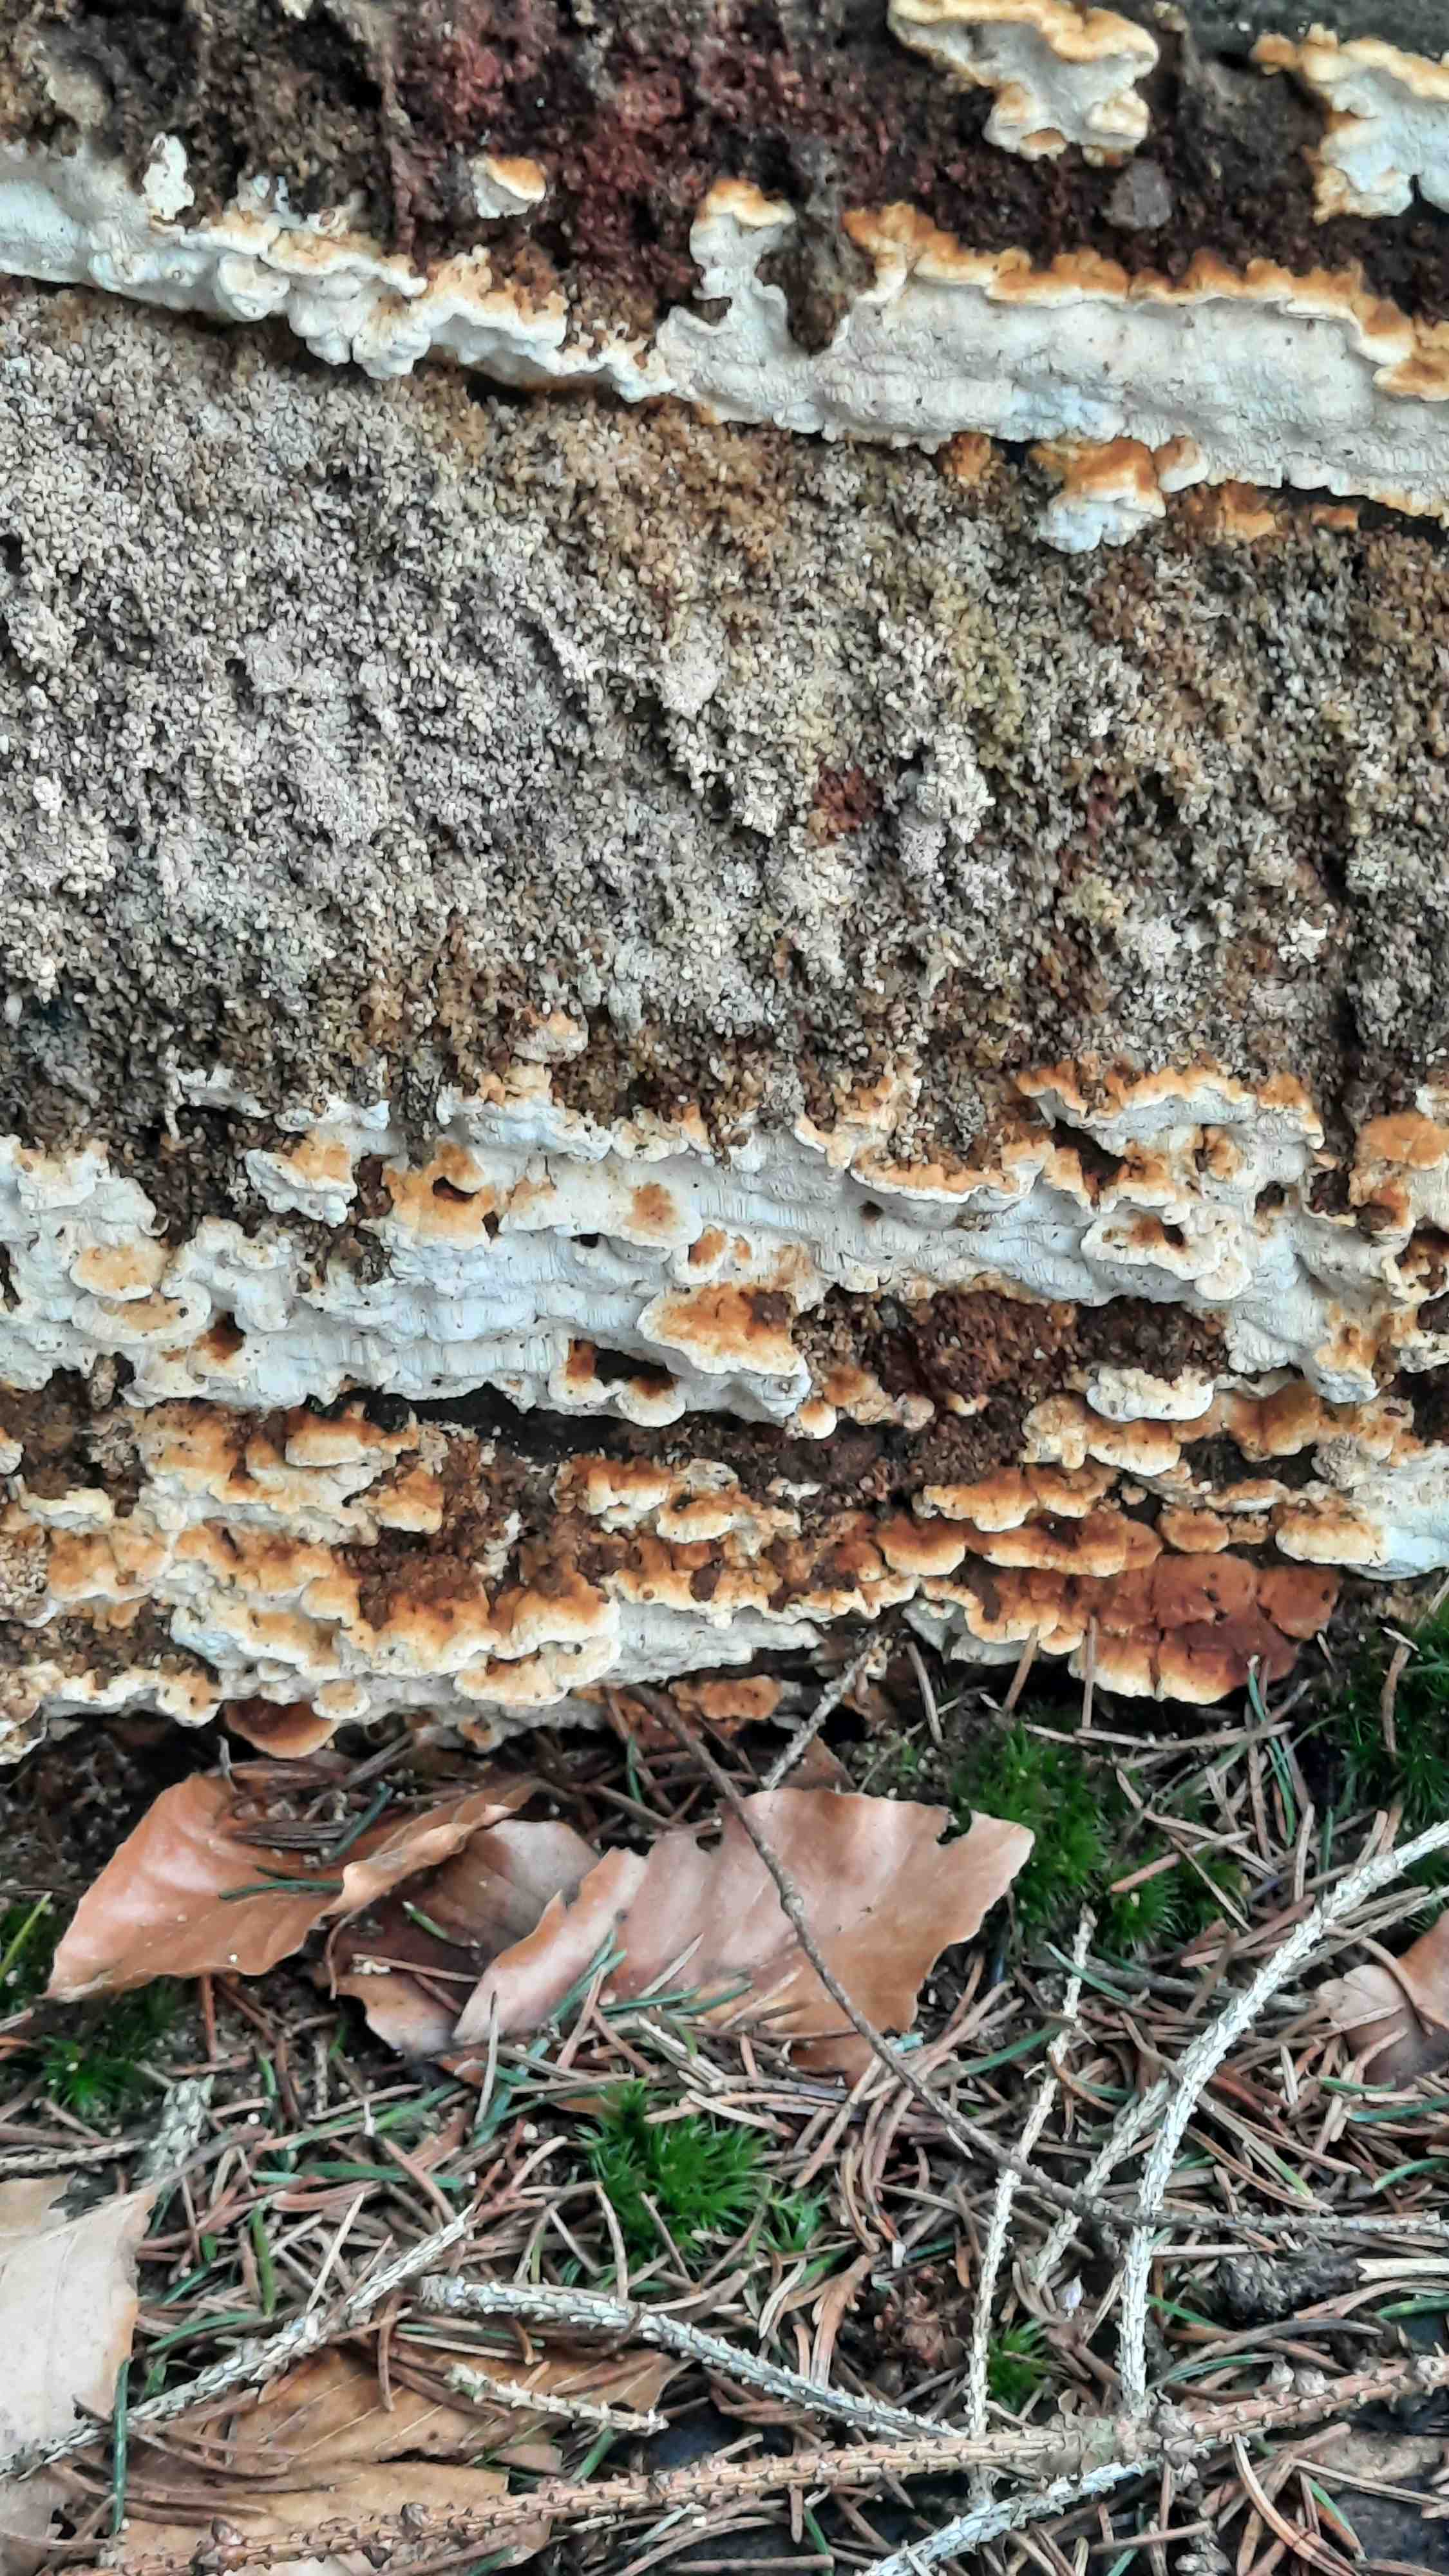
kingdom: Fungi
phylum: Basidiomycota
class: Agaricomycetes
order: Polyporales
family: Fomitopsidaceae
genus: Neoantrodia
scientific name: Neoantrodia serialis
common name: række-sejporesvamp
